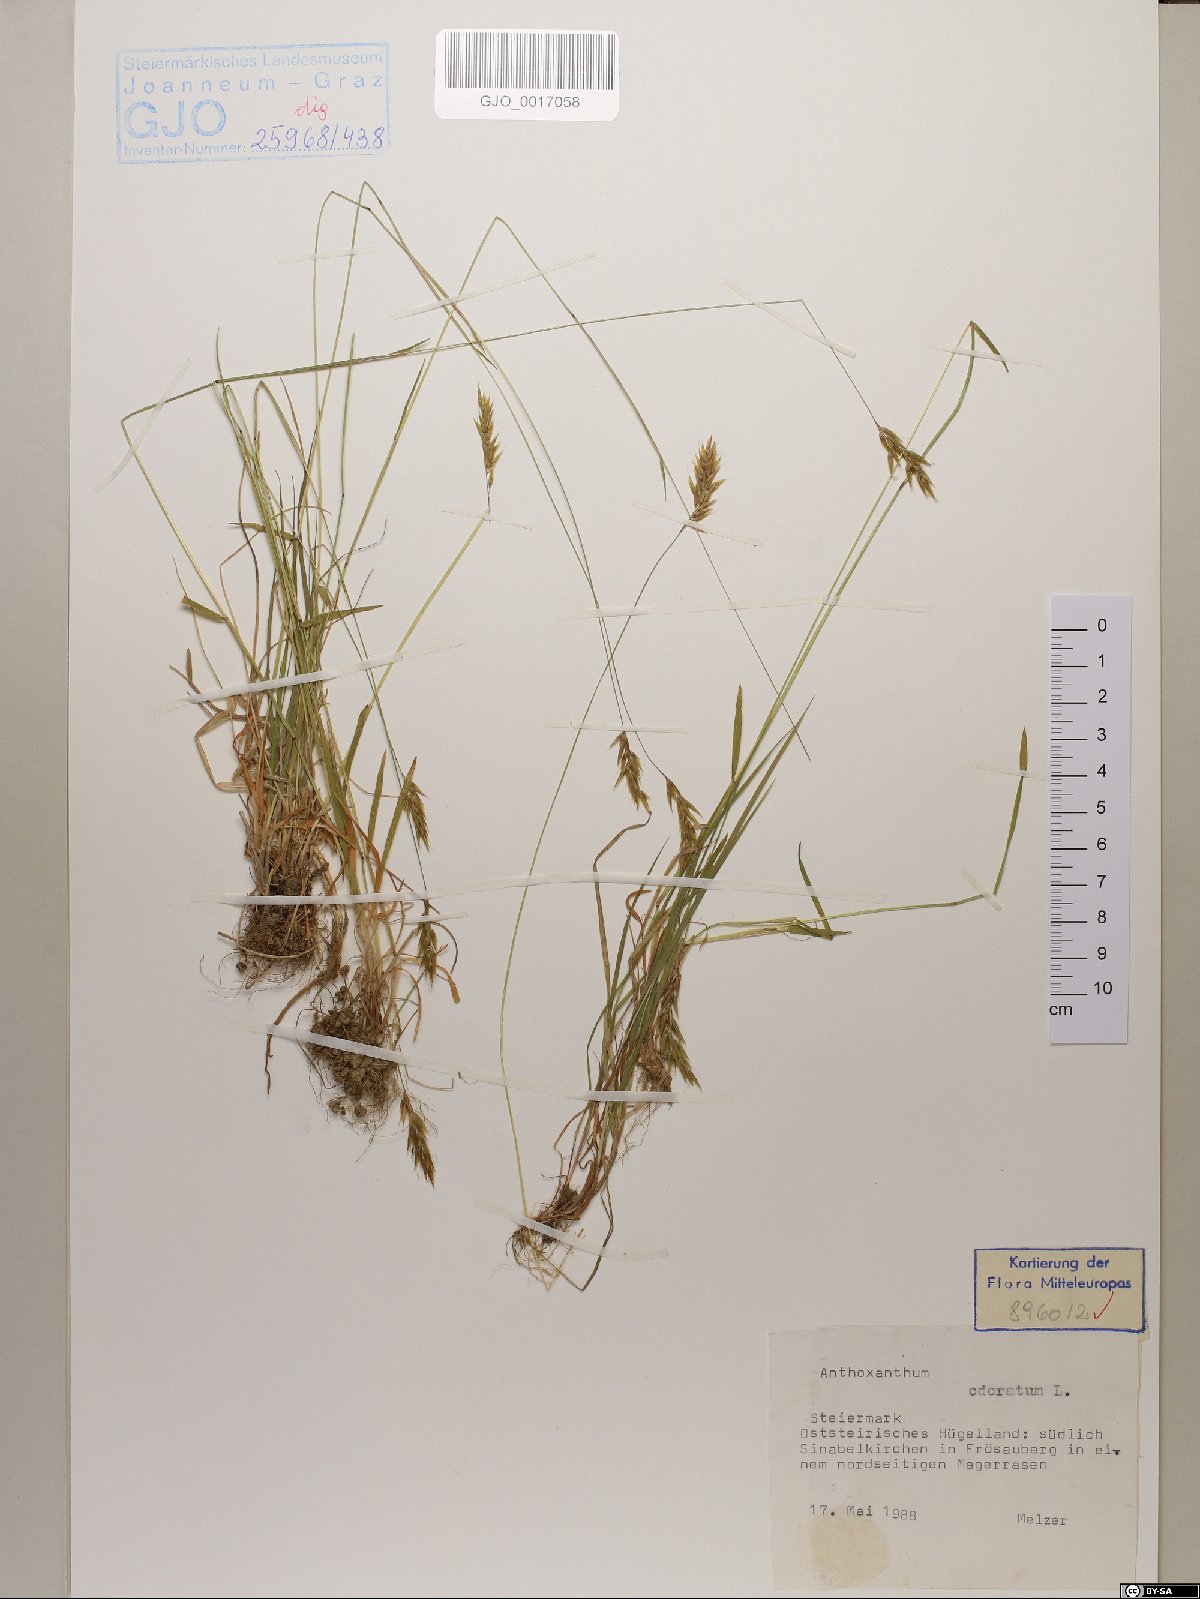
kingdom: Plantae
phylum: Tracheophyta
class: Liliopsida
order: Poales
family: Poaceae
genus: Anthoxanthum
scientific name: Anthoxanthum odoratum
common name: Sweet vernalgrass
